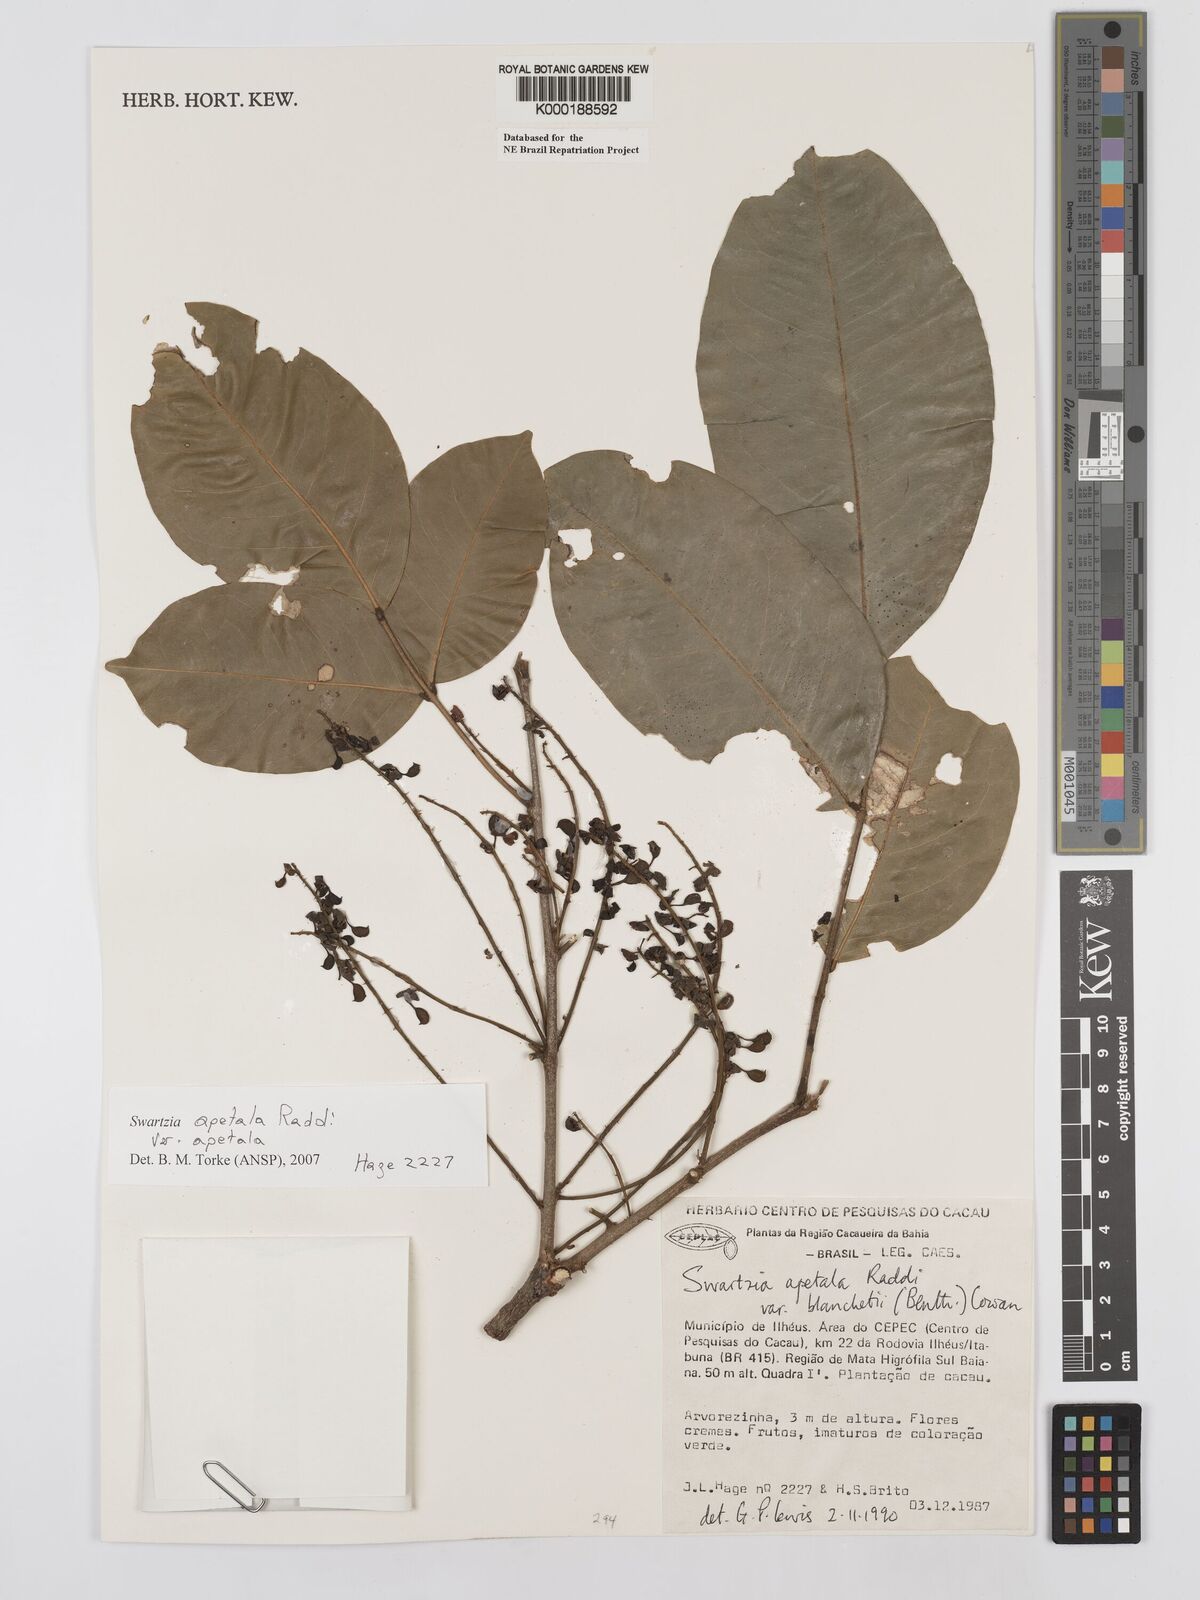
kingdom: Plantae
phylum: Tracheophyta
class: Magnoliopsida
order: Fabales
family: Fabaceae
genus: Swartzia
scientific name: Swartzia apetala
